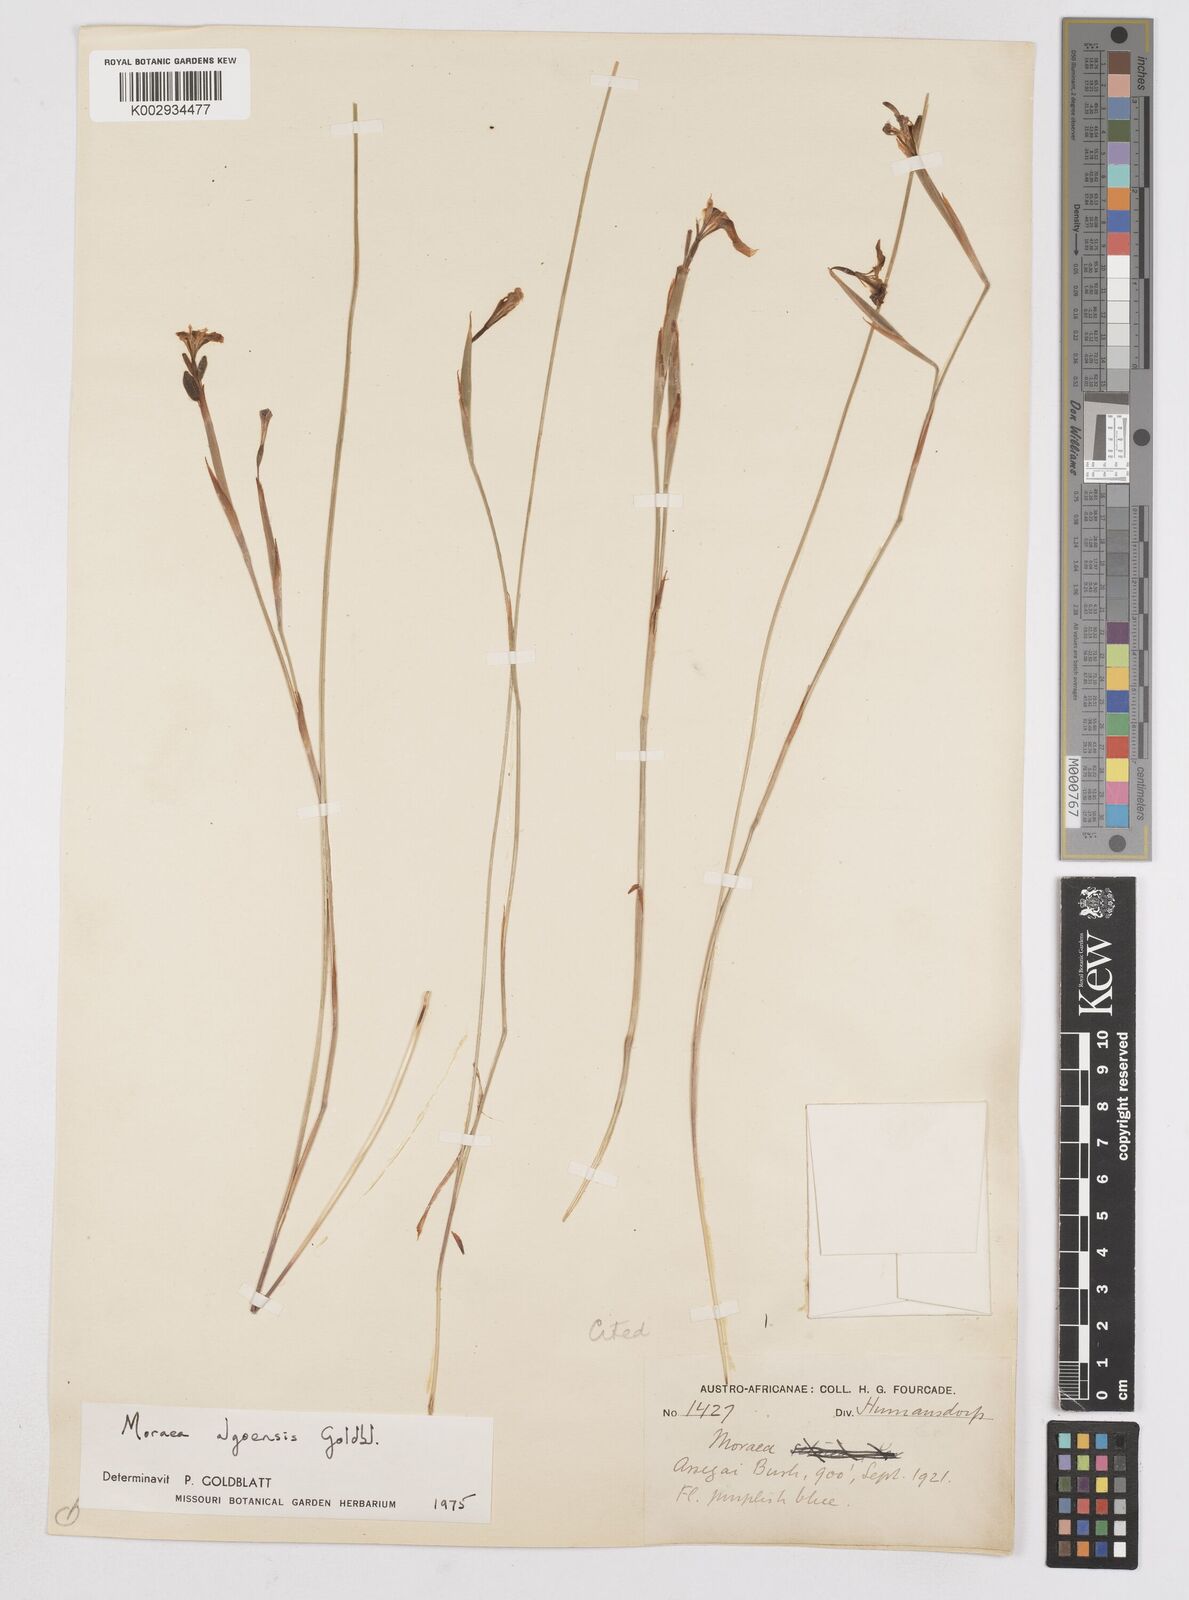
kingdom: Plantae
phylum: Tracheophyta
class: Liliopsida
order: Asparagales
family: Iridaceae
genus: Moraea
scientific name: Moraea algoensis
